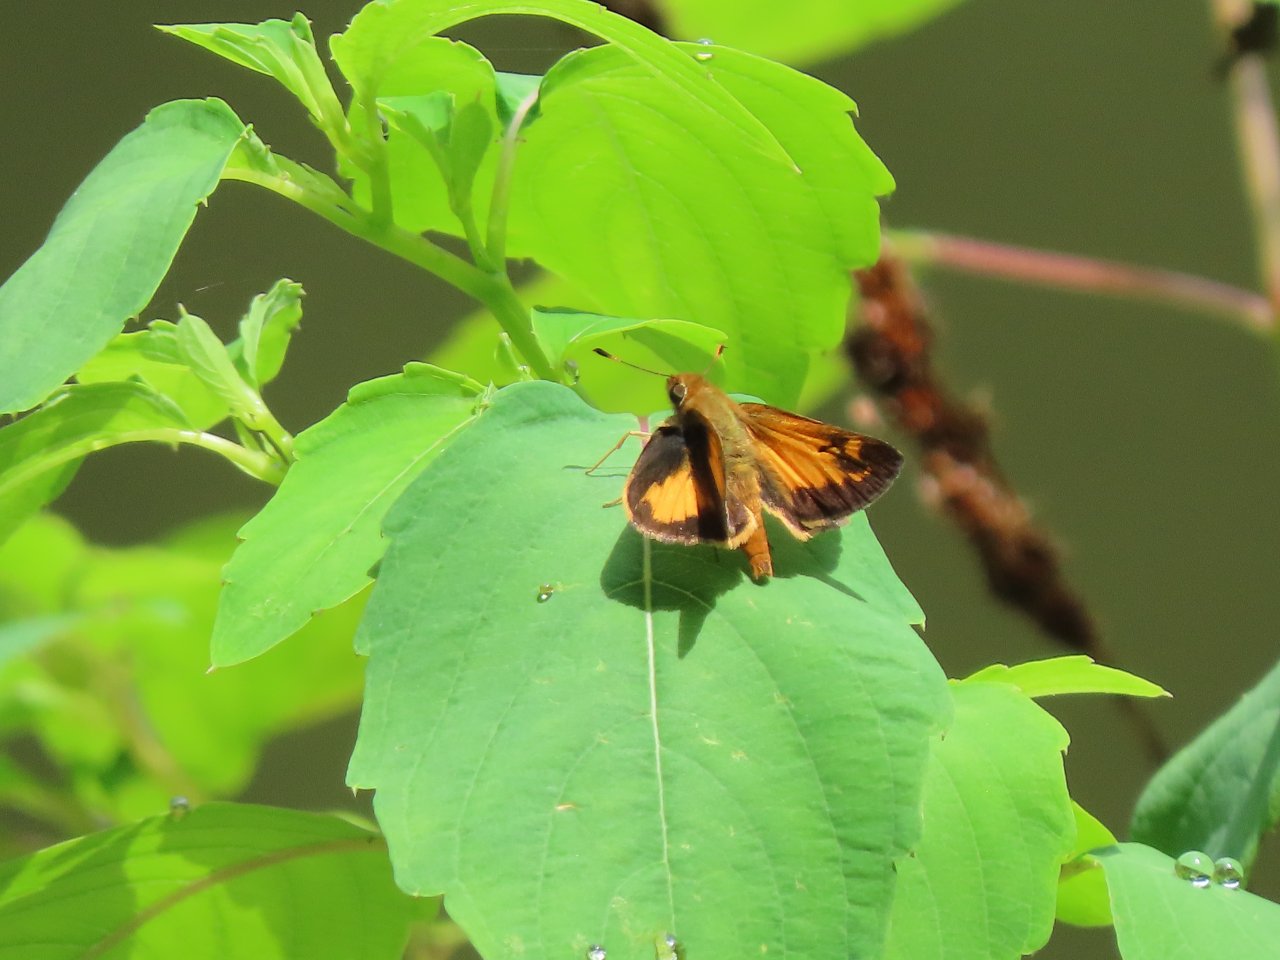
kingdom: Animalia
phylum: Arthropoda
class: Insecta
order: Lepidoptera
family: Hesperiidae
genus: Lon
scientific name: Lon zabulon
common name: Zabulon Skipper
